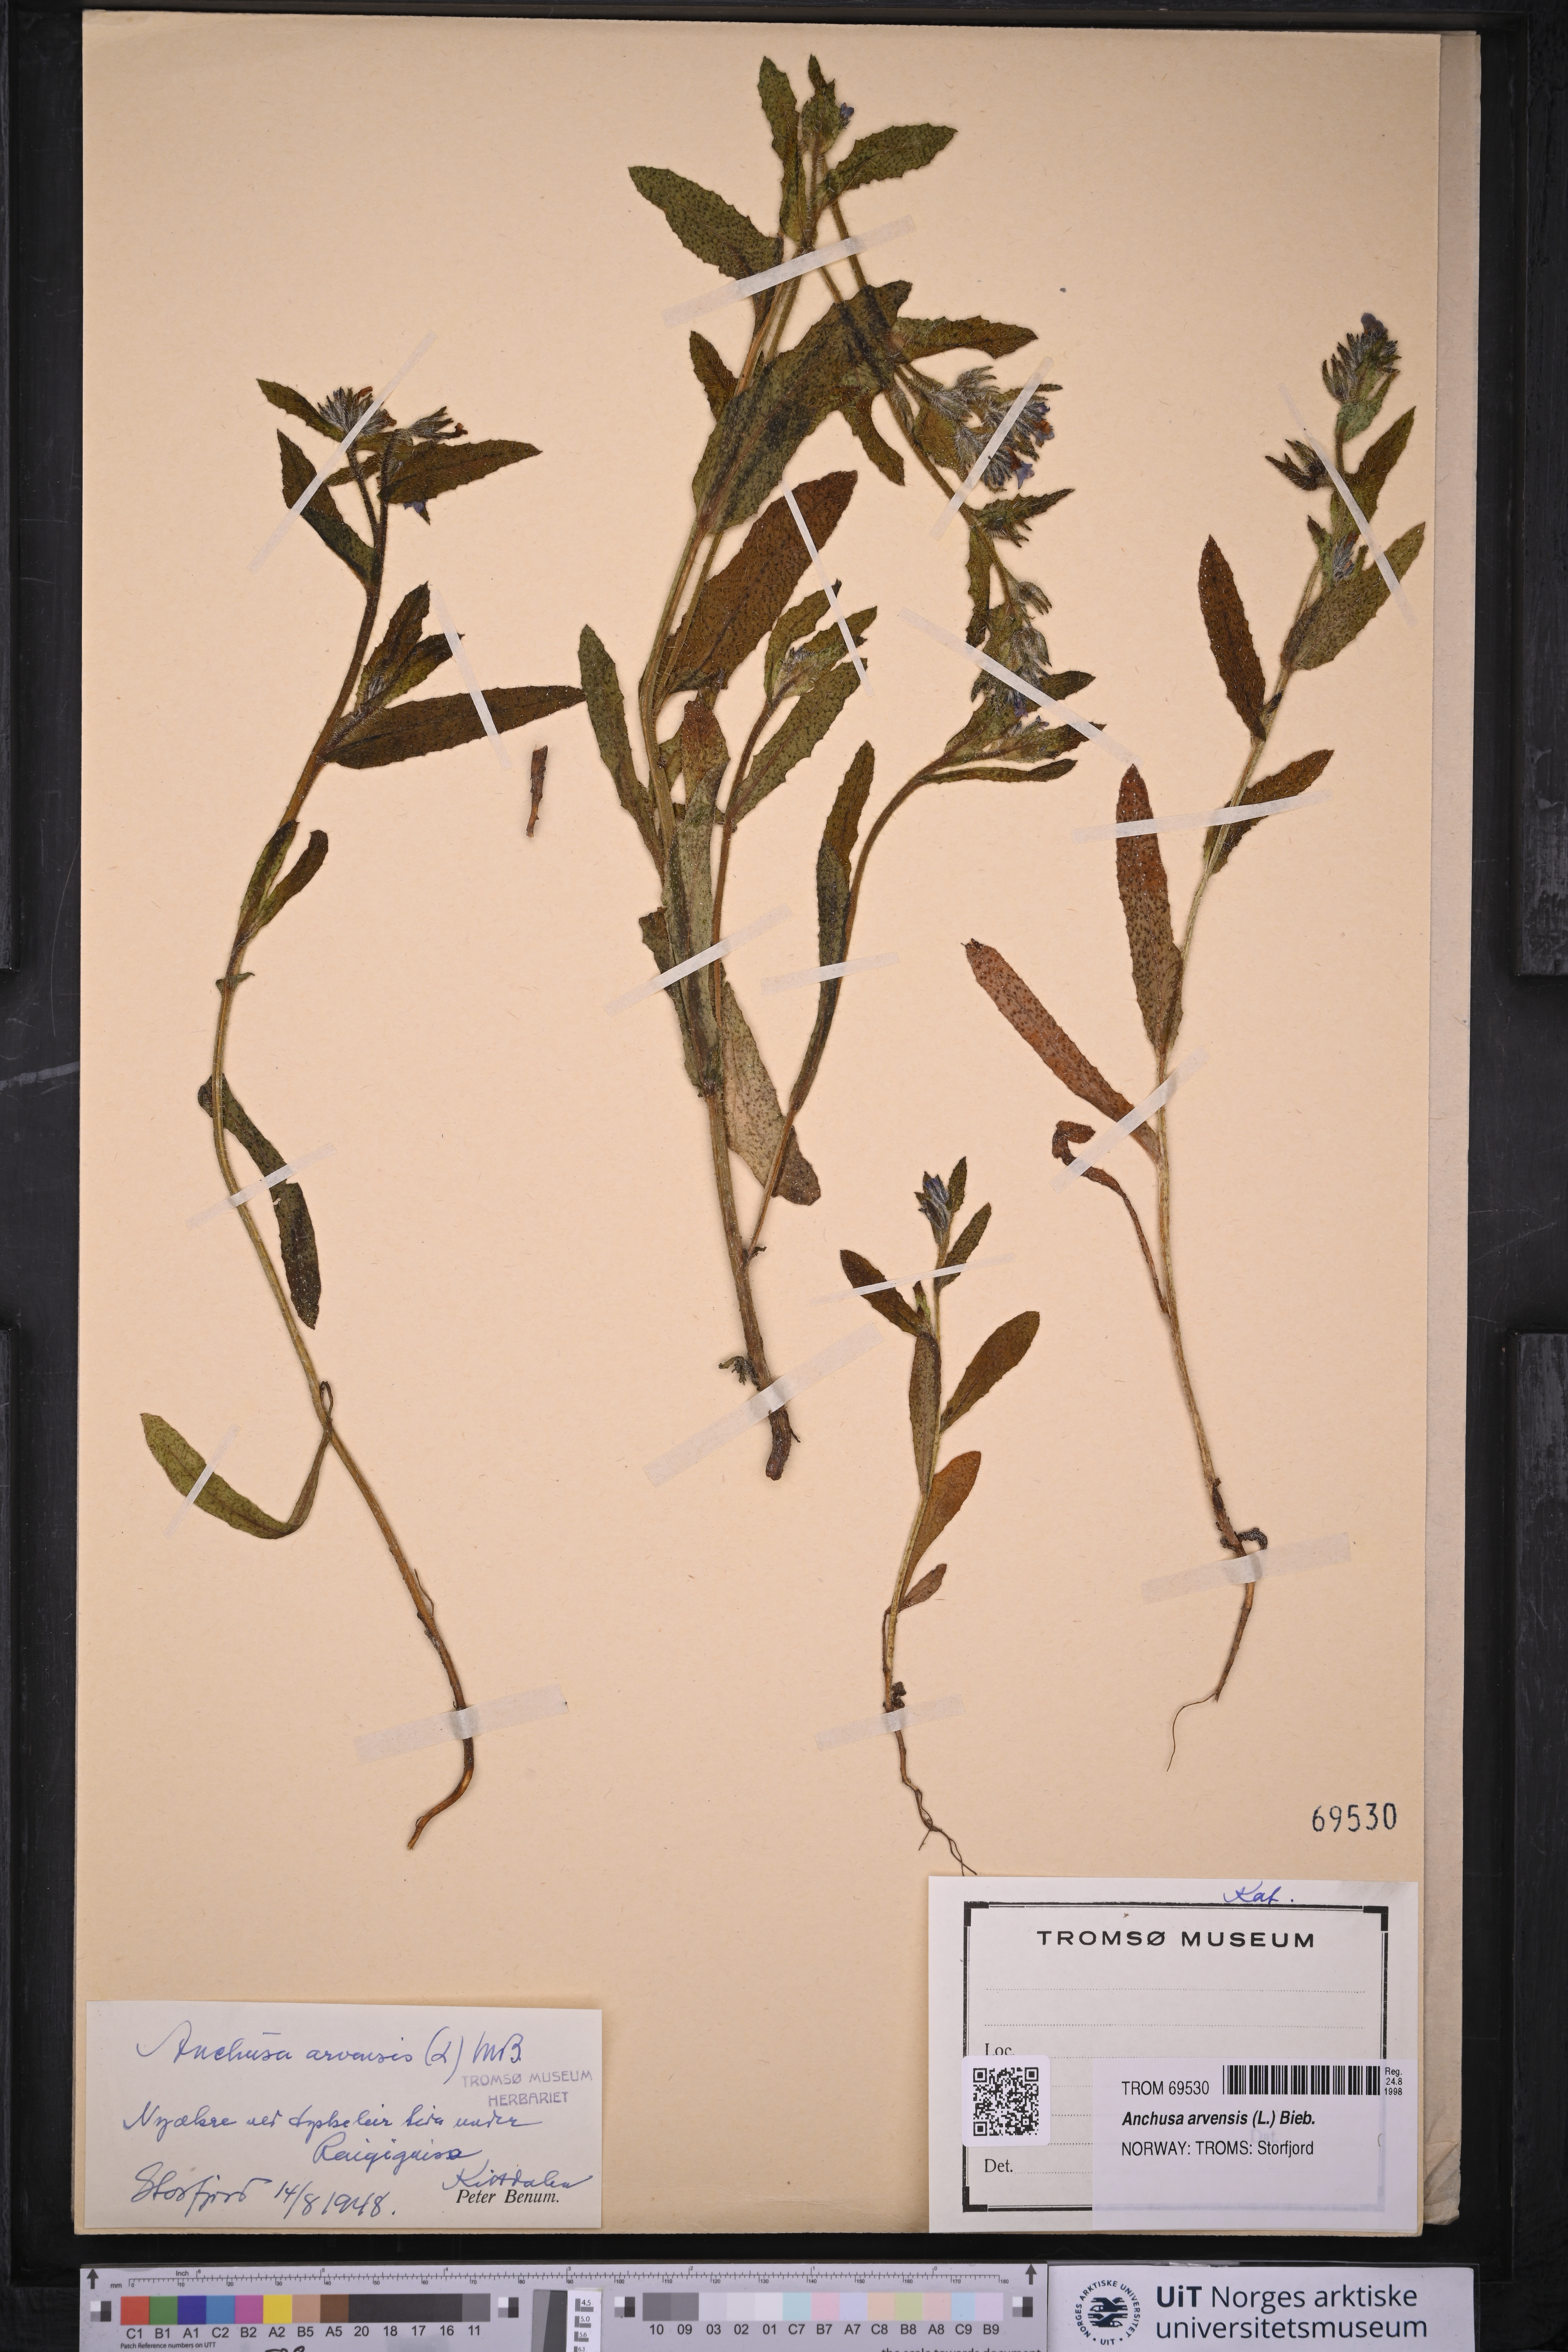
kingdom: Plantae
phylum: Tracheophyta
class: Magnoliopsida
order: Boraginales
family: Boraginaceae
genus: Lycopsis
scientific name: Lycopsis arvensis
